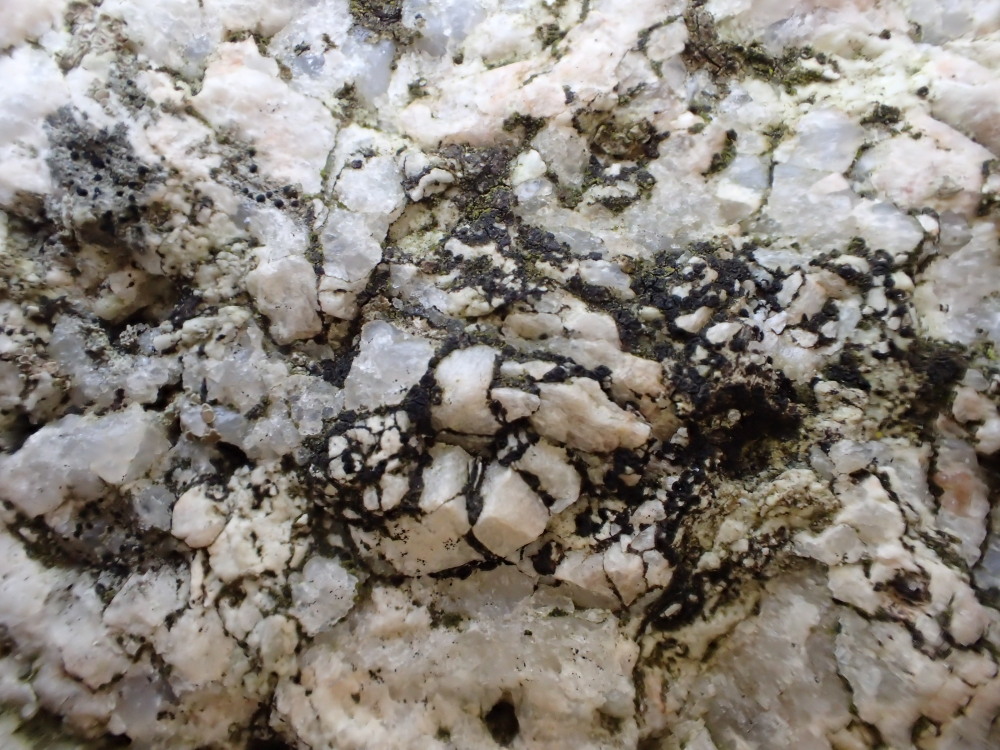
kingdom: Fungi
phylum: Ascomycota
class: Lecanoromycetes
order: Acarosporales
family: Acarosporaceae
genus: Acarospora
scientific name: Acarospora privigna
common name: sort foldekantlav
